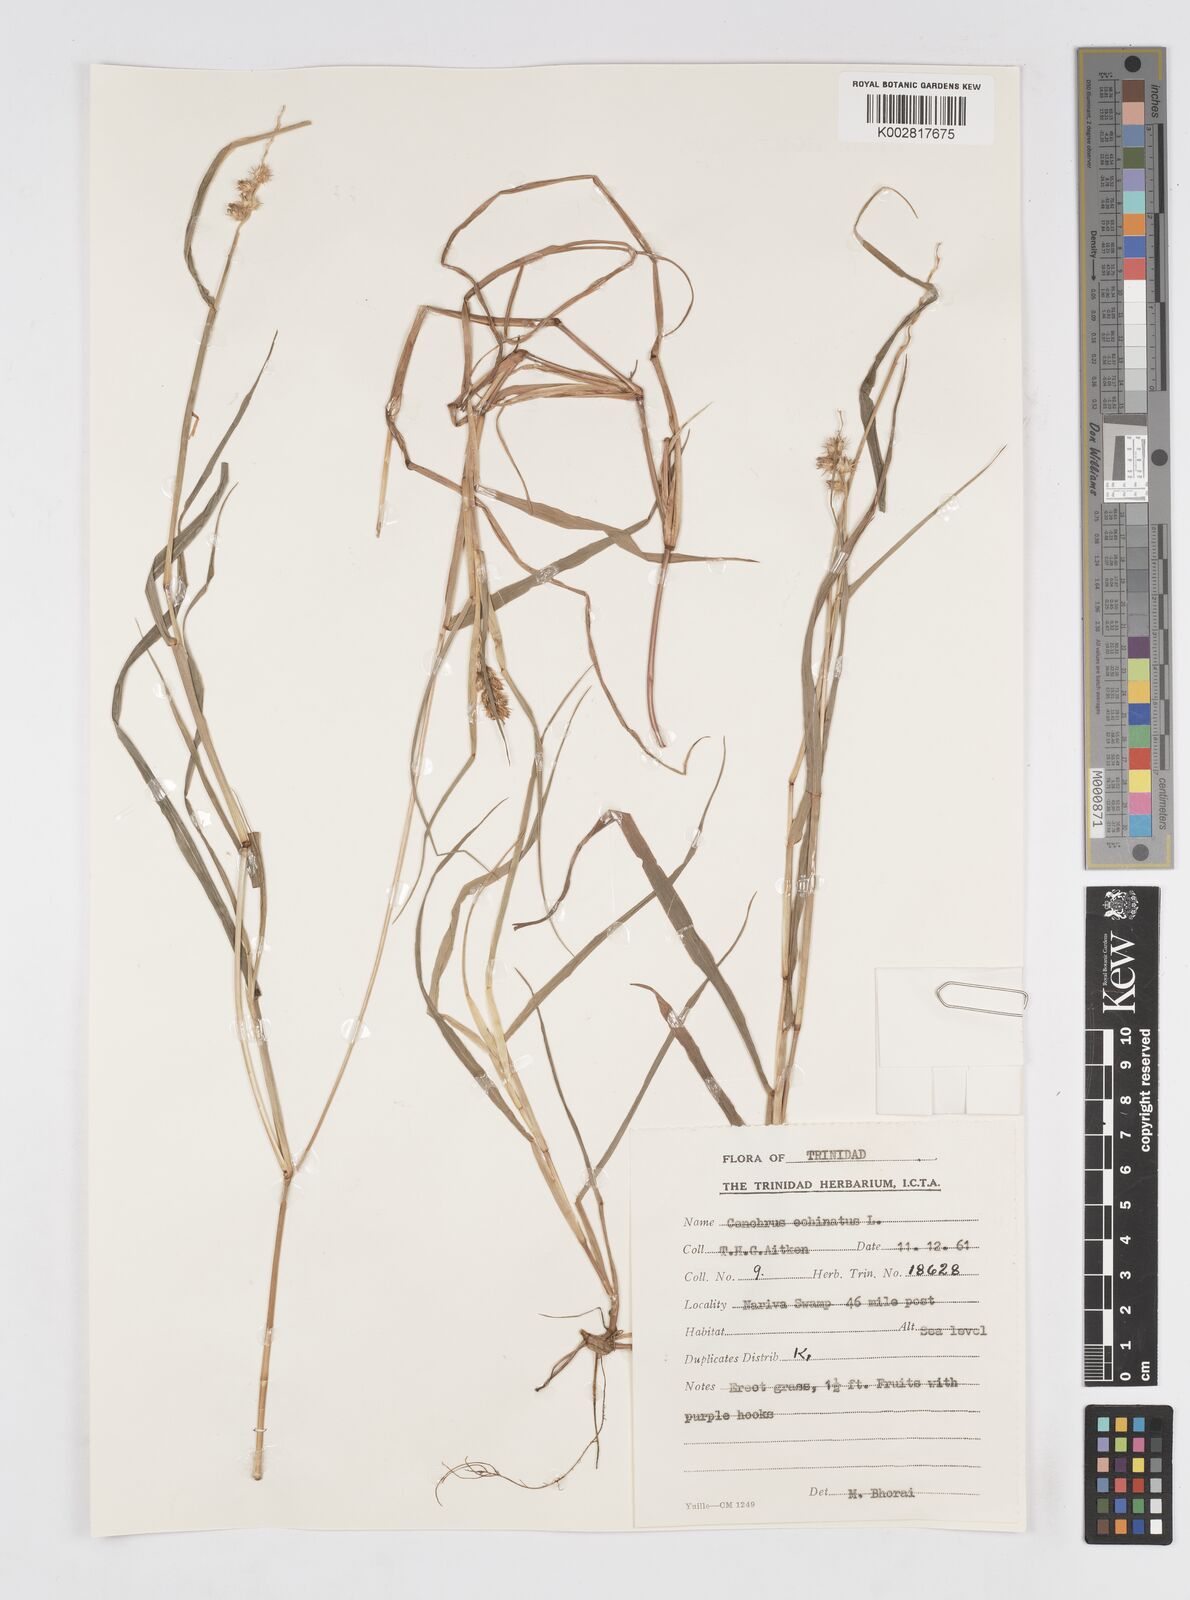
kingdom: Plantae
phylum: Tracheophyta
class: Liliopsida
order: Poales
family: Poaceae
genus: Cenchrus
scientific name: Cenchrus
